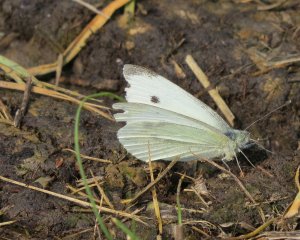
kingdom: Animalia
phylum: Arthropoda
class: Insecta
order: Lepidoptera
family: Pieridae
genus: Pieris
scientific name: Pieris rapae
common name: Cabbage White
